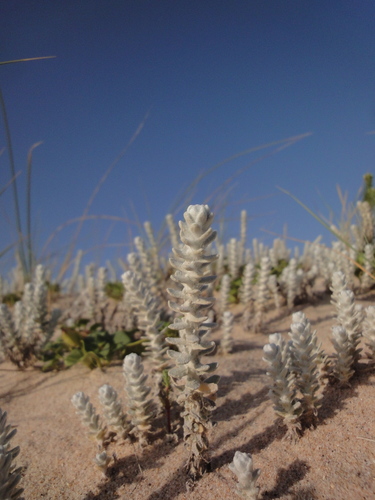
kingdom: Plantae
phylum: Tracheophyta
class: Magnoliopsida
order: Asterales
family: Asteraceae
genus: Achillea
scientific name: Achillea maritima
